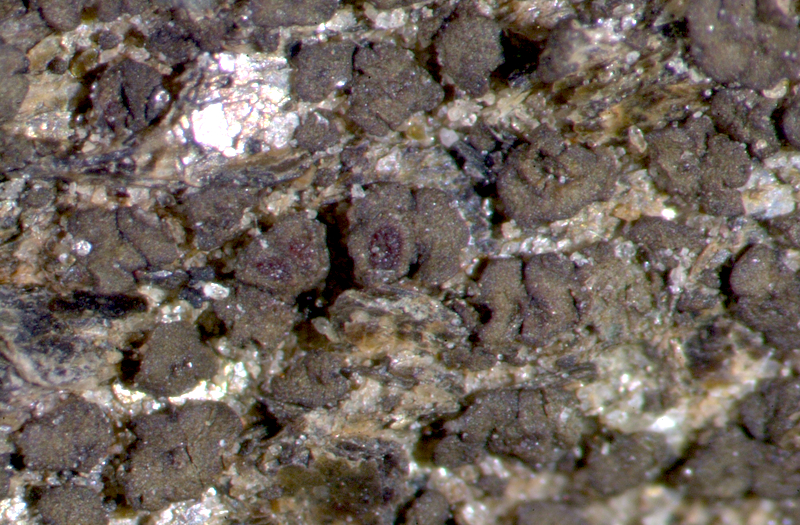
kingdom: Fungi
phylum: Ascomycota
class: Lichinomycetes
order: Lichinales
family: Peltulaceae
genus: Peltula
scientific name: Peltula obscurans
